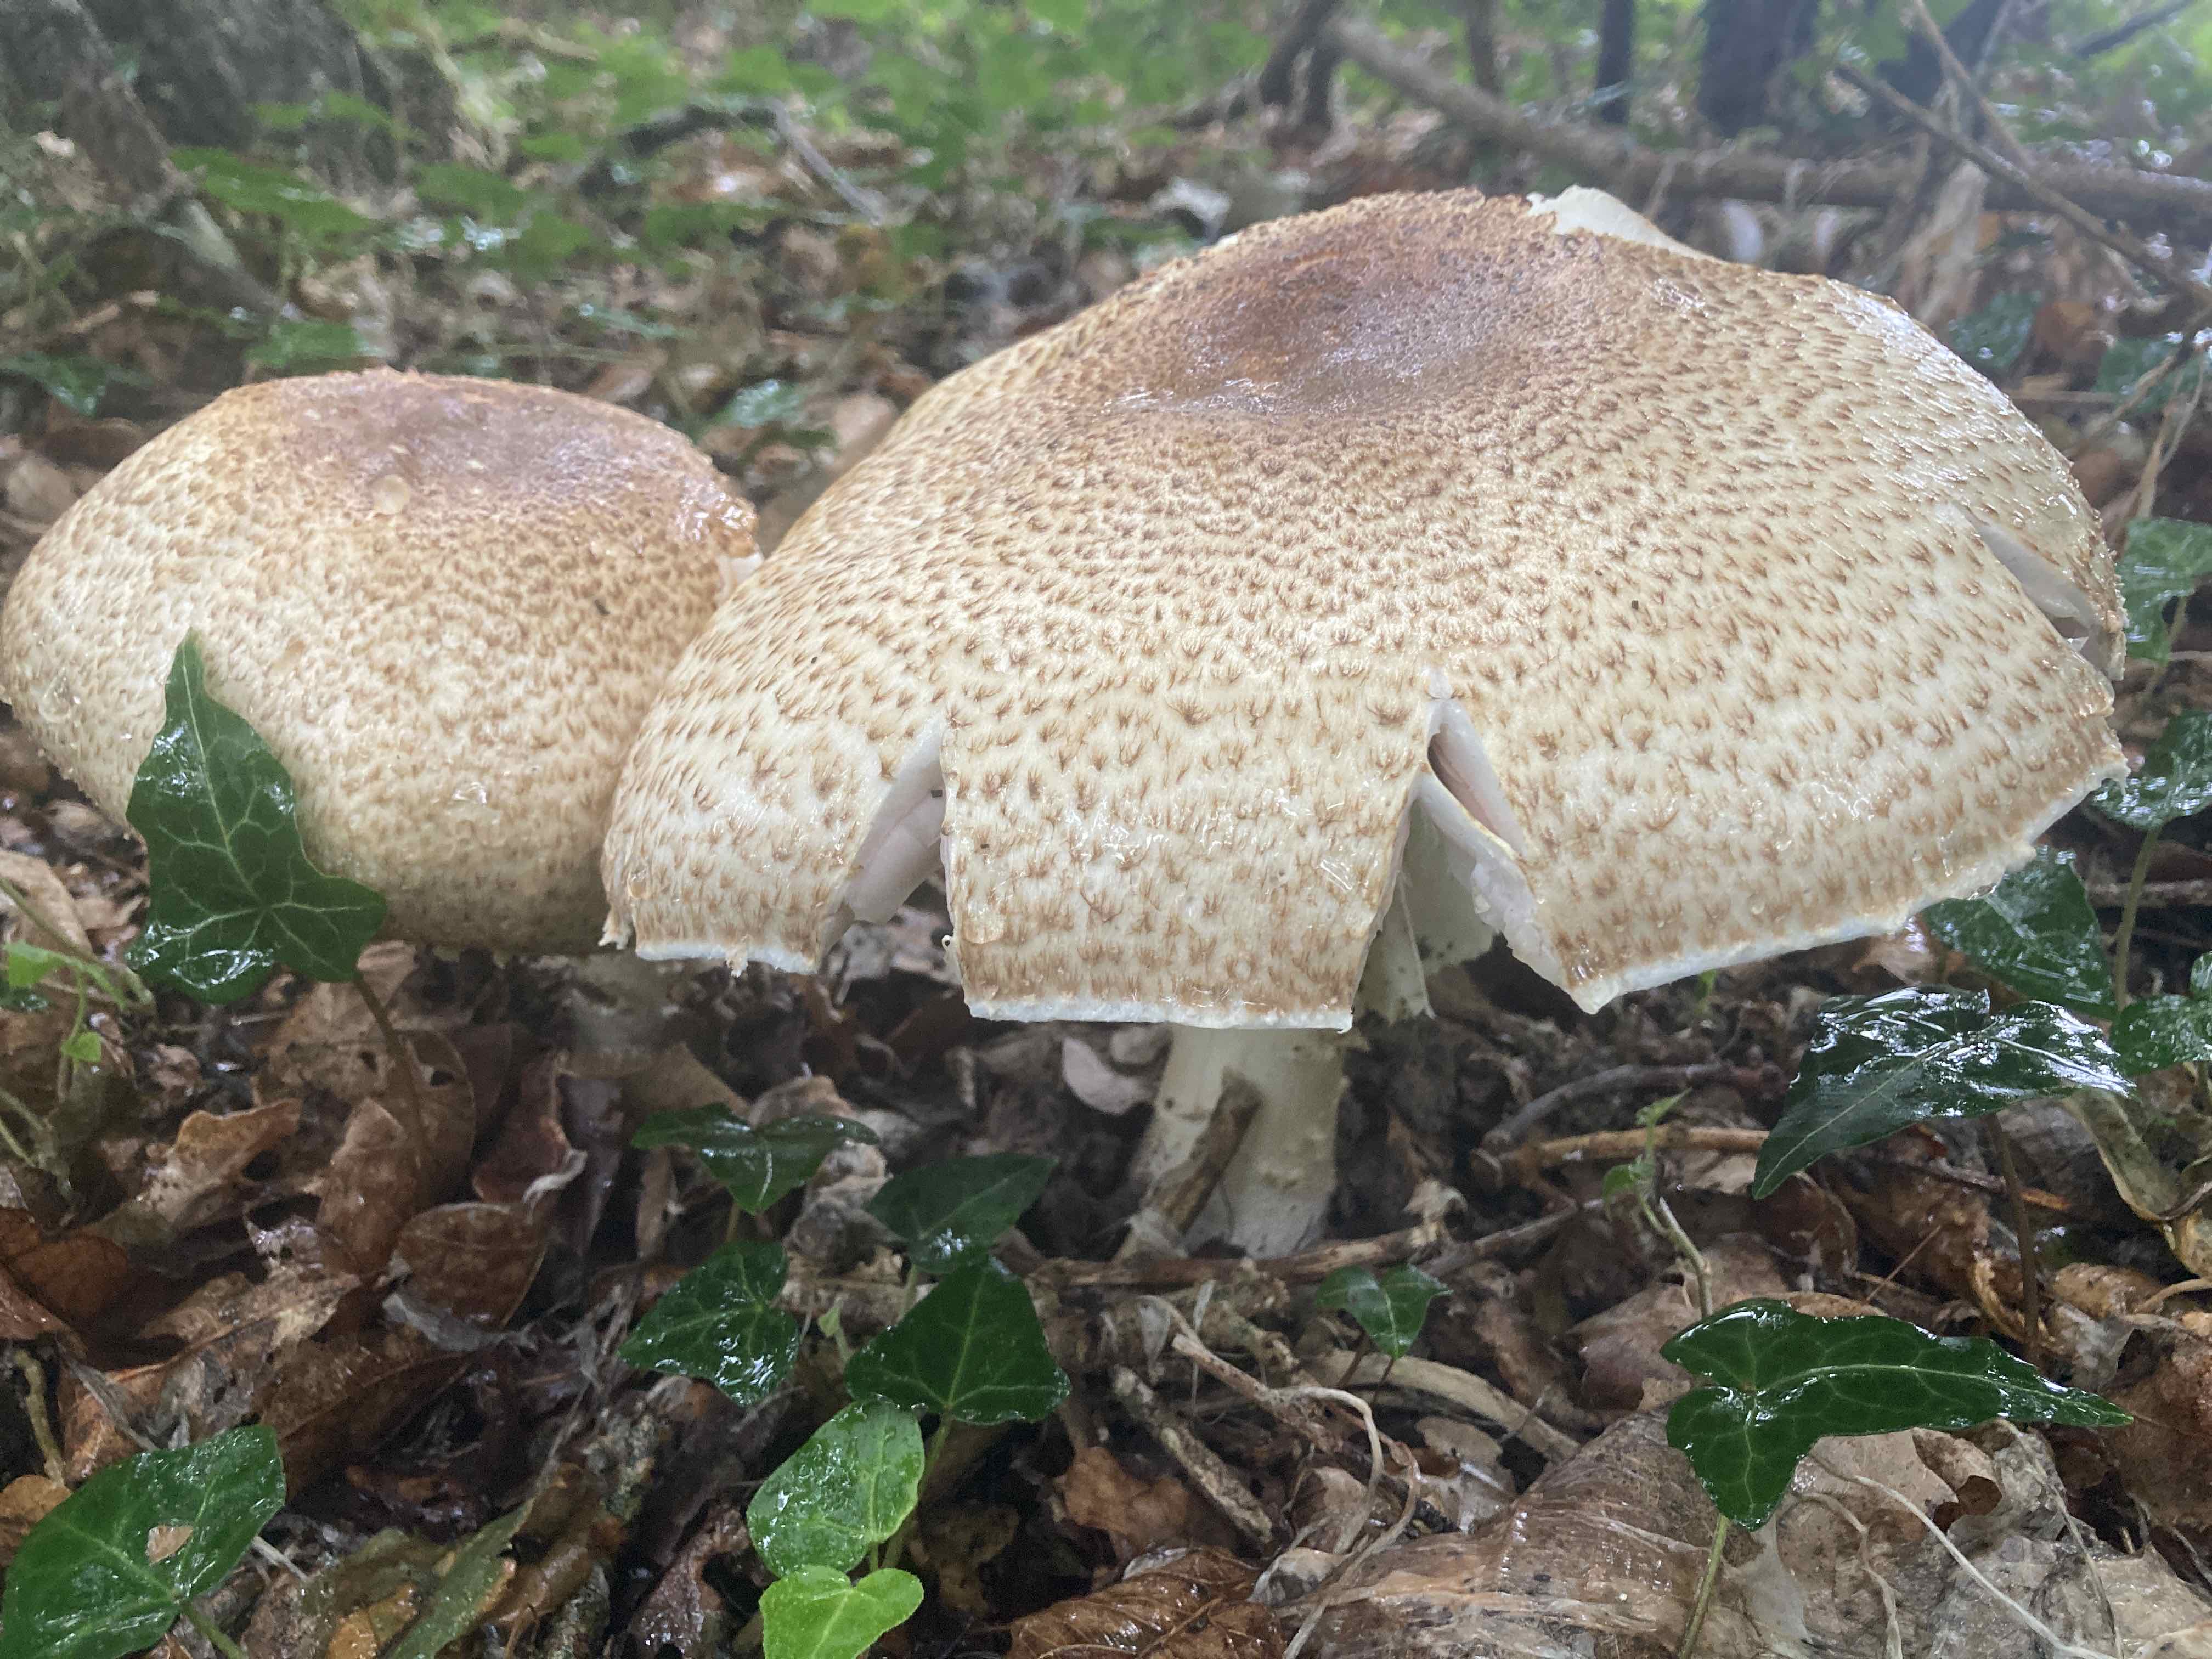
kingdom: Fungi
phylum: Basidiomycota
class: Agaricomycetes
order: Agaricales
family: Agaricaceae
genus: Agaricus
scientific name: Agaricus augustus
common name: prægtig champignon
